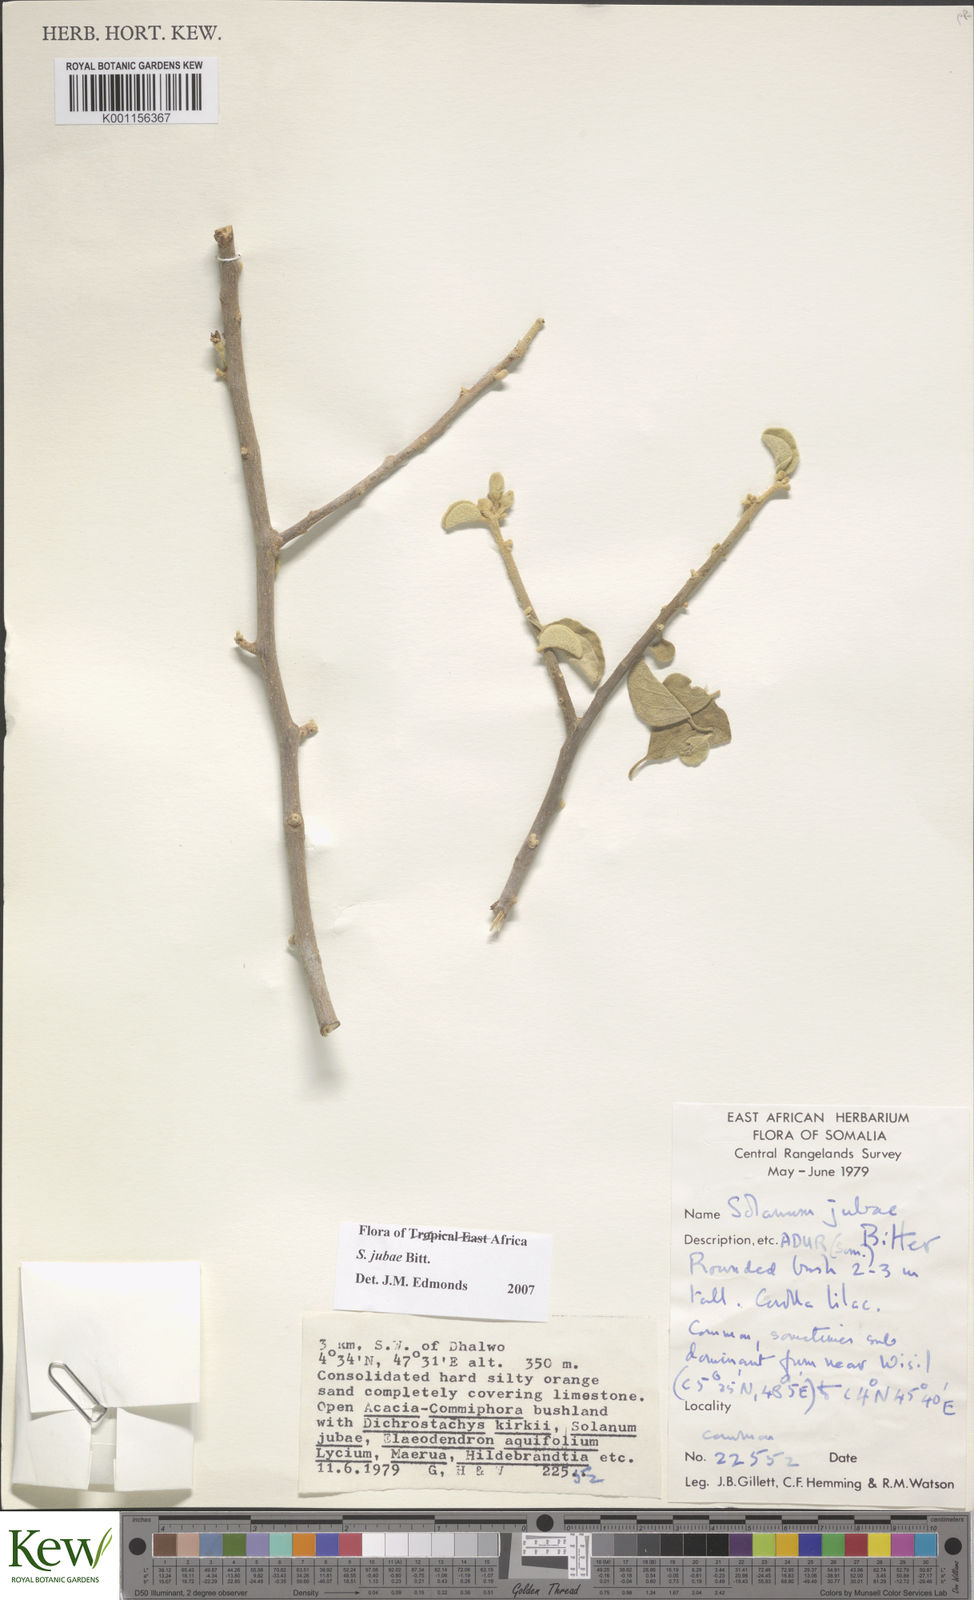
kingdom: Plantae
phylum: Tracheophyta
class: Magnoliopsida
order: Solanales
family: Solanaceae
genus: Solanum
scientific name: Solanum jubae
